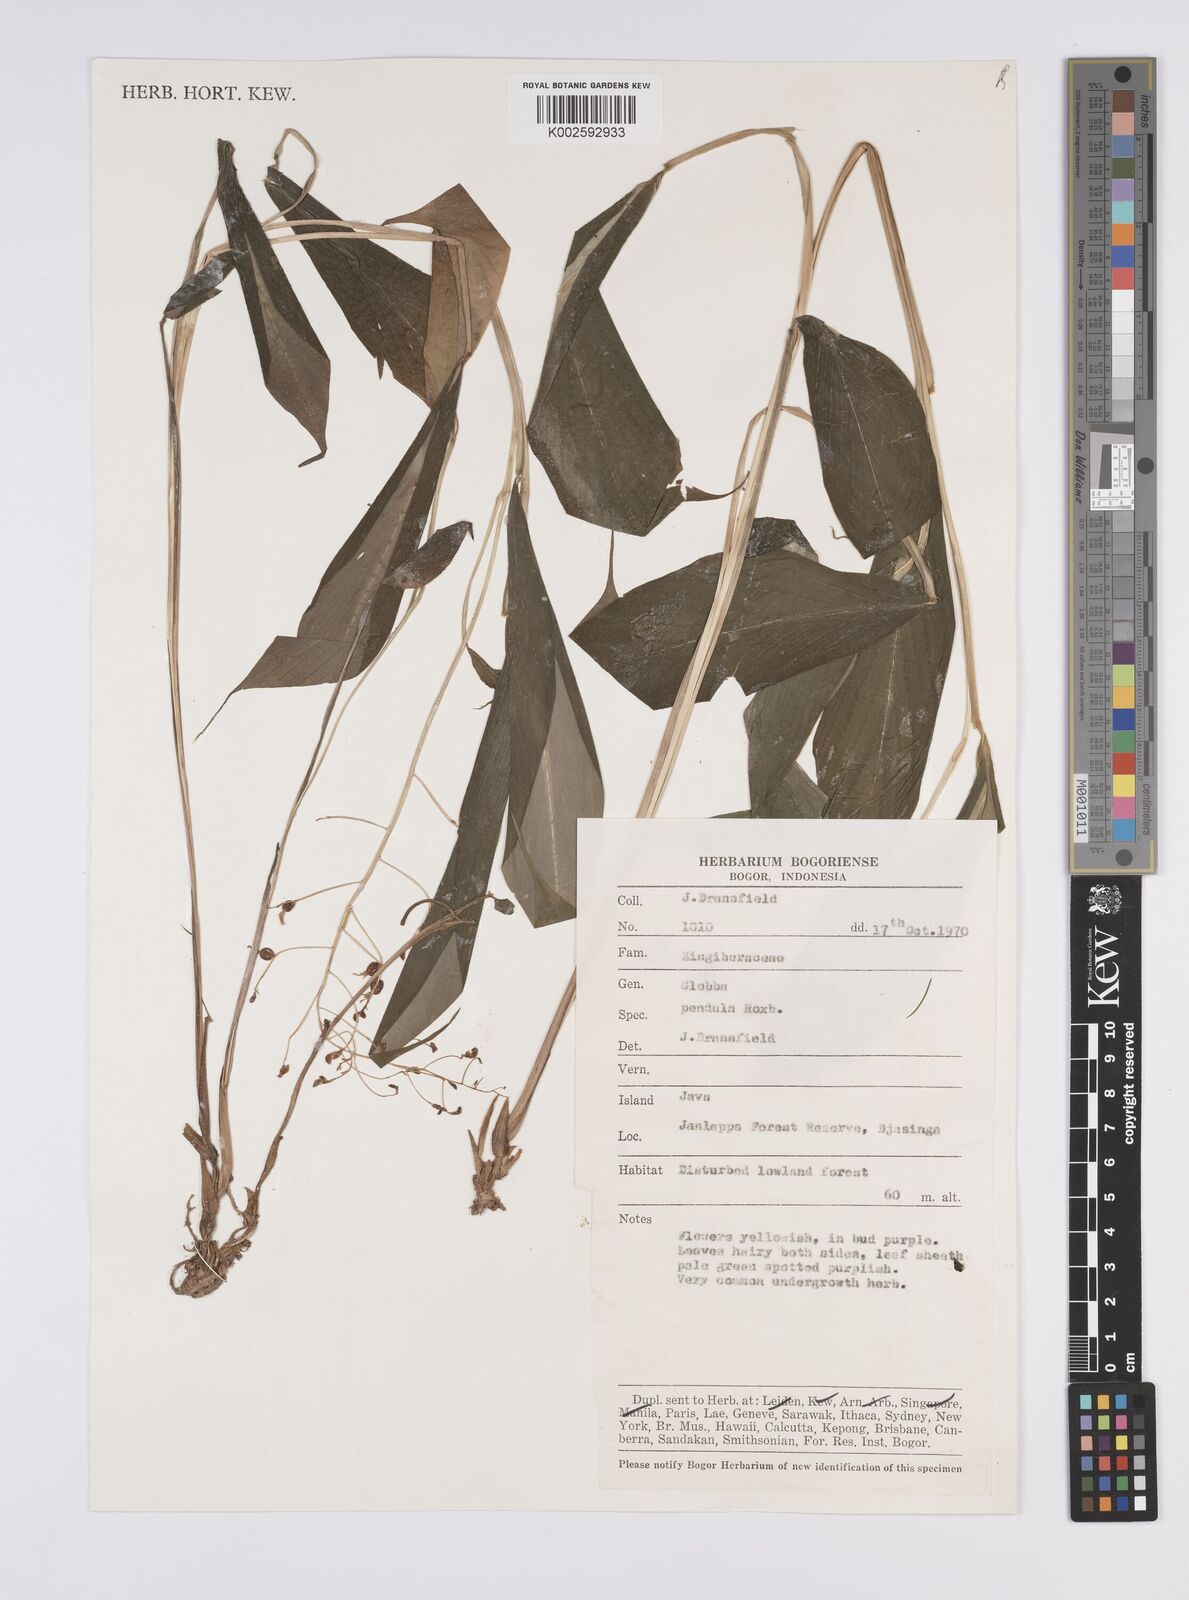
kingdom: Plantae
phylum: Tracheophyta
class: Liliopsida
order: Zingiberales
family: Zingiberaceae
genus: Globba
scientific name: Globba pendula
